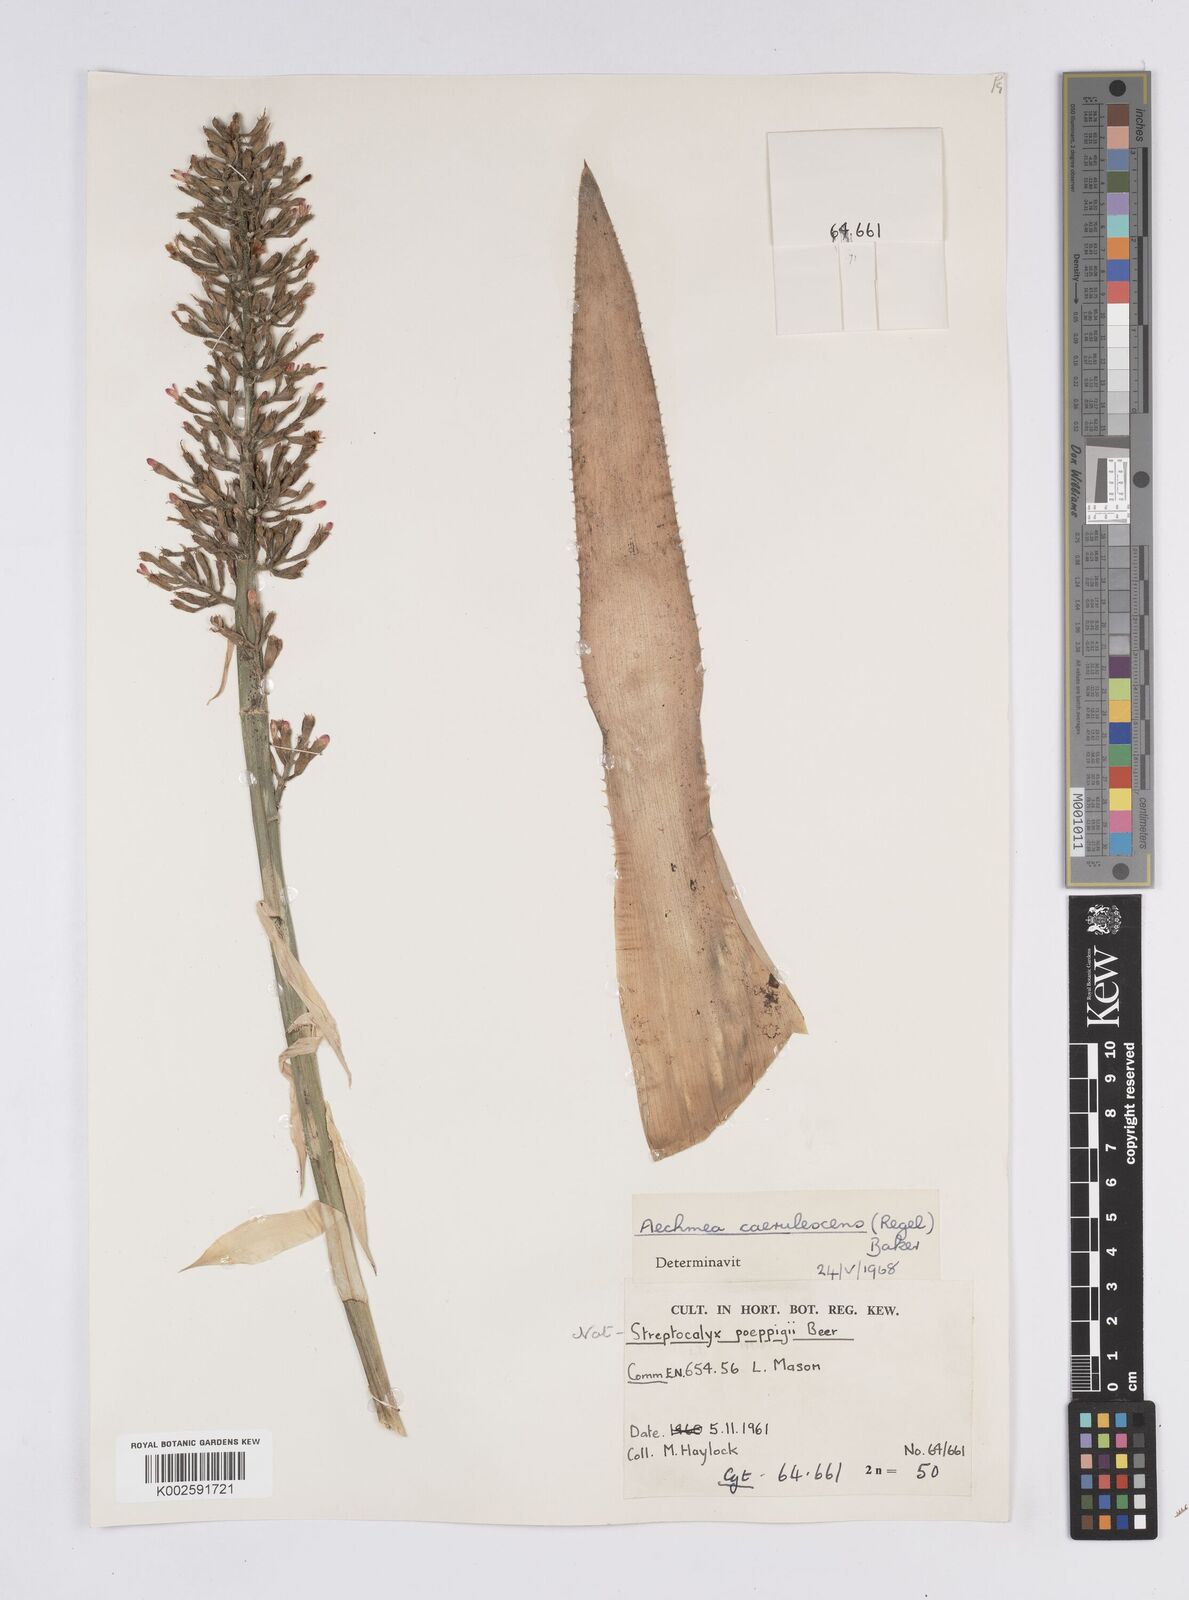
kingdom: Plantae
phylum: Tracheophyta
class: Liliopsida
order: Poales
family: Bromeliaceae
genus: Aechmea
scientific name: Aechmea lueddemanniana
